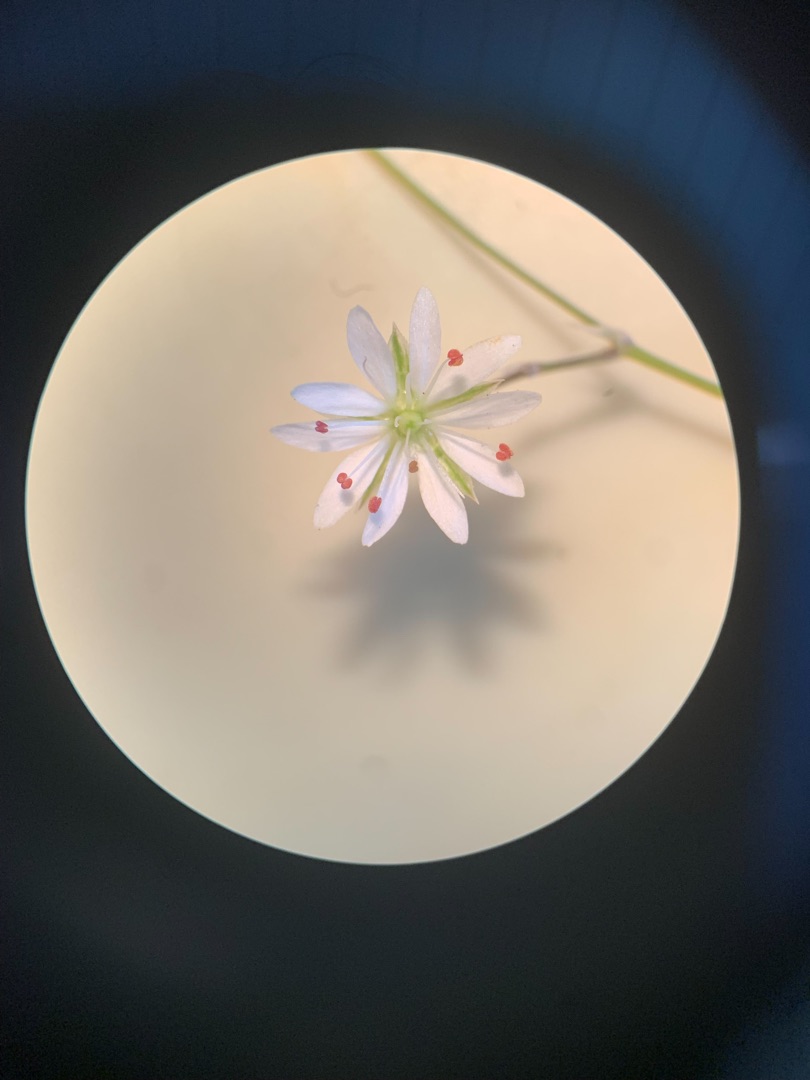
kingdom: Plantae
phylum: Tracheophyta
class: Magnoliopsida
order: Caryophyllales
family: Caryophyllaceae
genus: Stellaria
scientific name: Stellaria graminea
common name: Græsbladet fladstjerne
